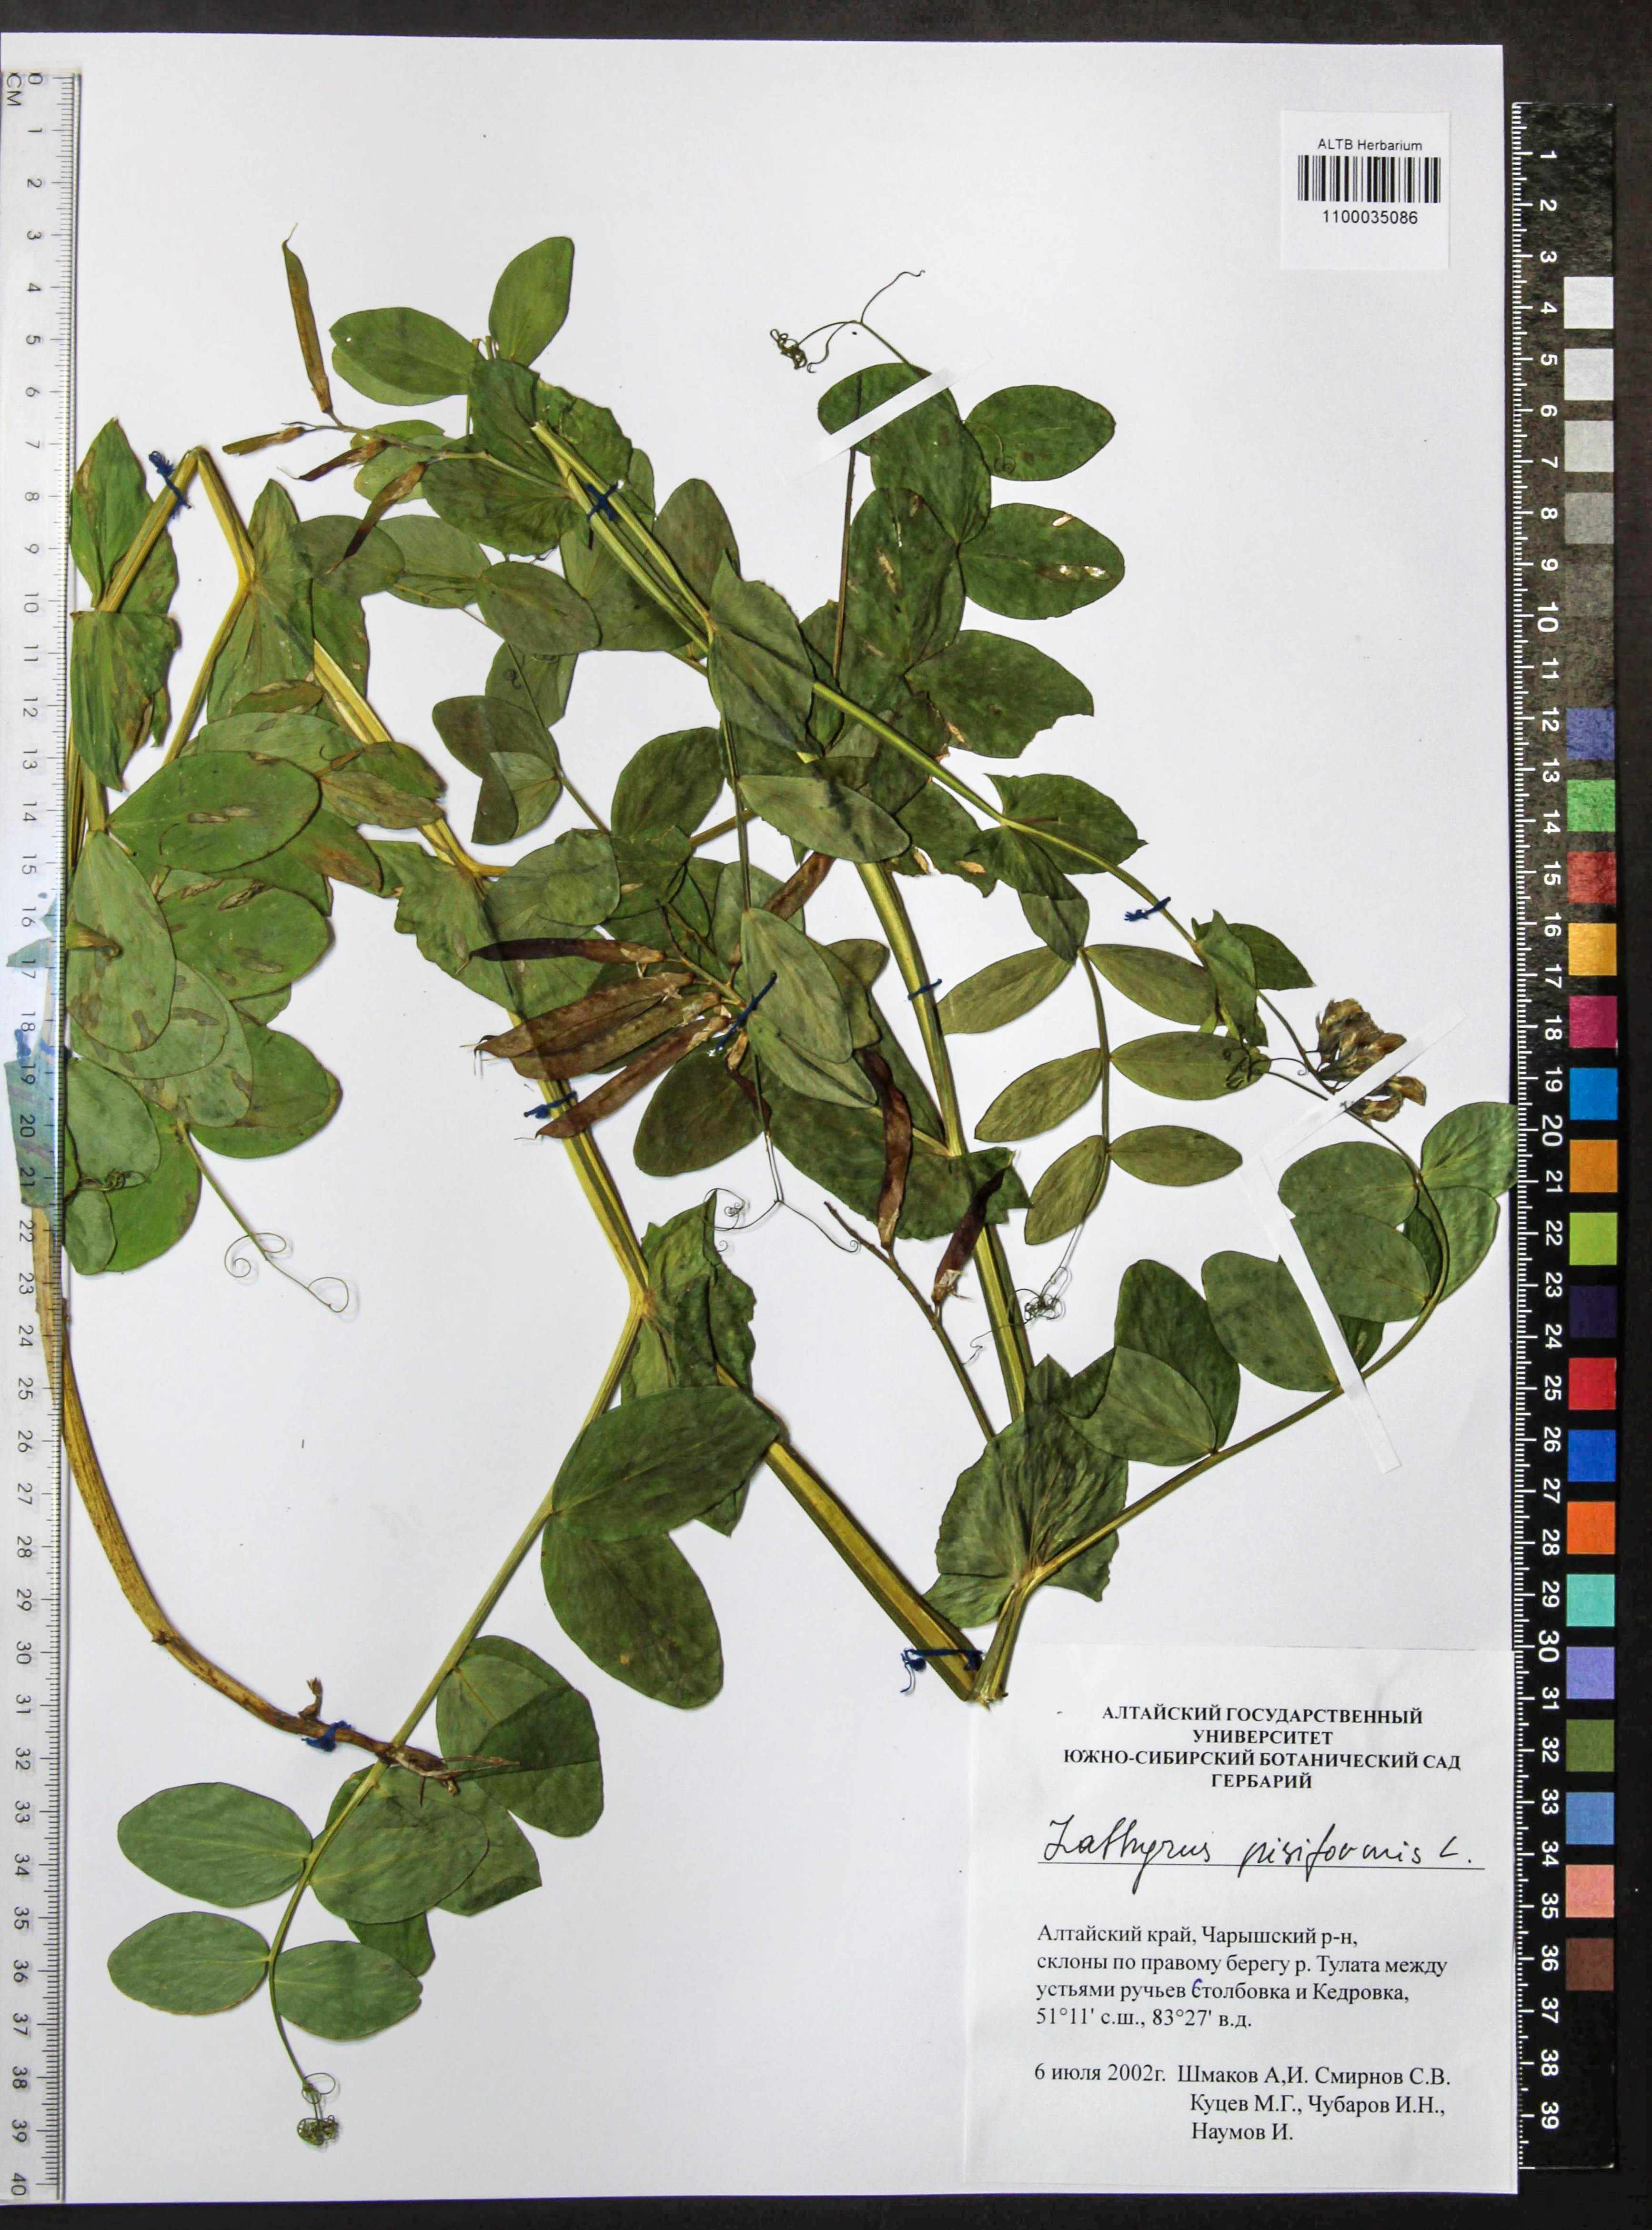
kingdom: Plantae
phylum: Tracheophyta
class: Magnoliopsida
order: Fabales
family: Fabaceae
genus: Lathyrus
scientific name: Lathyrus pisiformis
